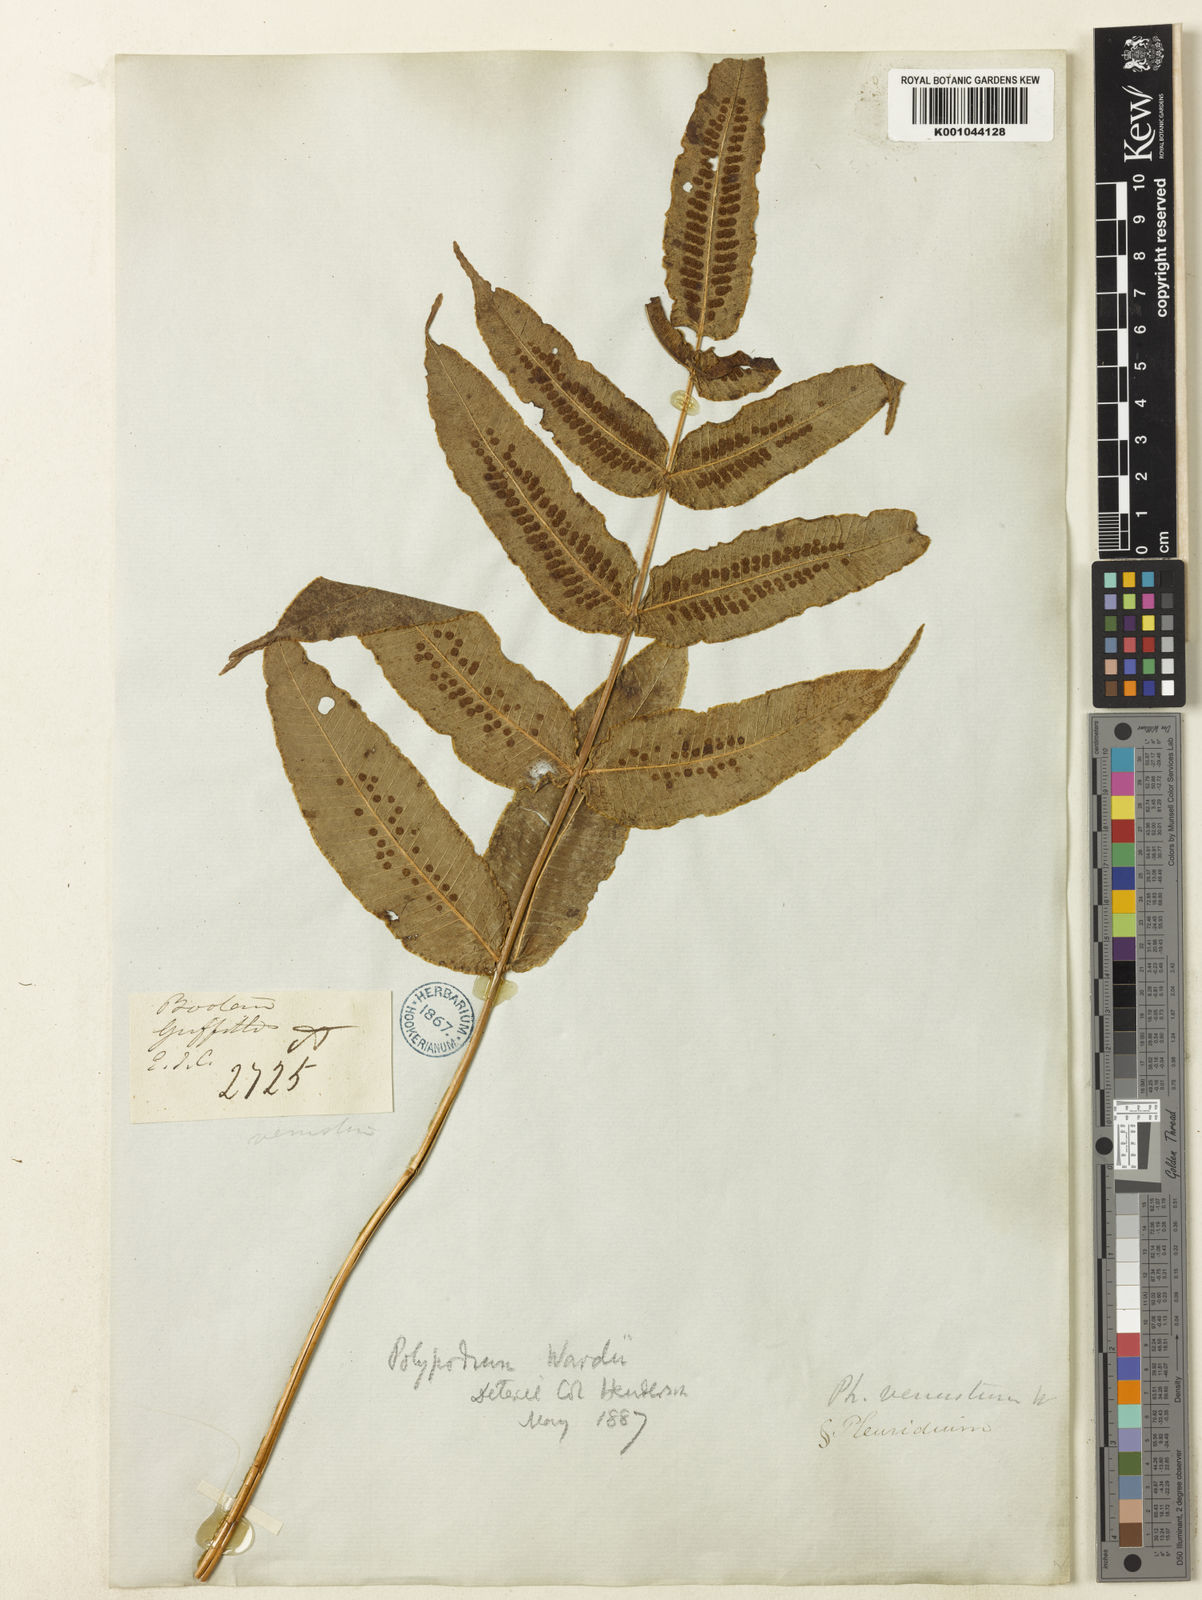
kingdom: Plantae
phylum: Tracheophyta
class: Polypodiopsida
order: Polypodiales
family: Polypodiaceae
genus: Selliguea
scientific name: Selliguea wardii
